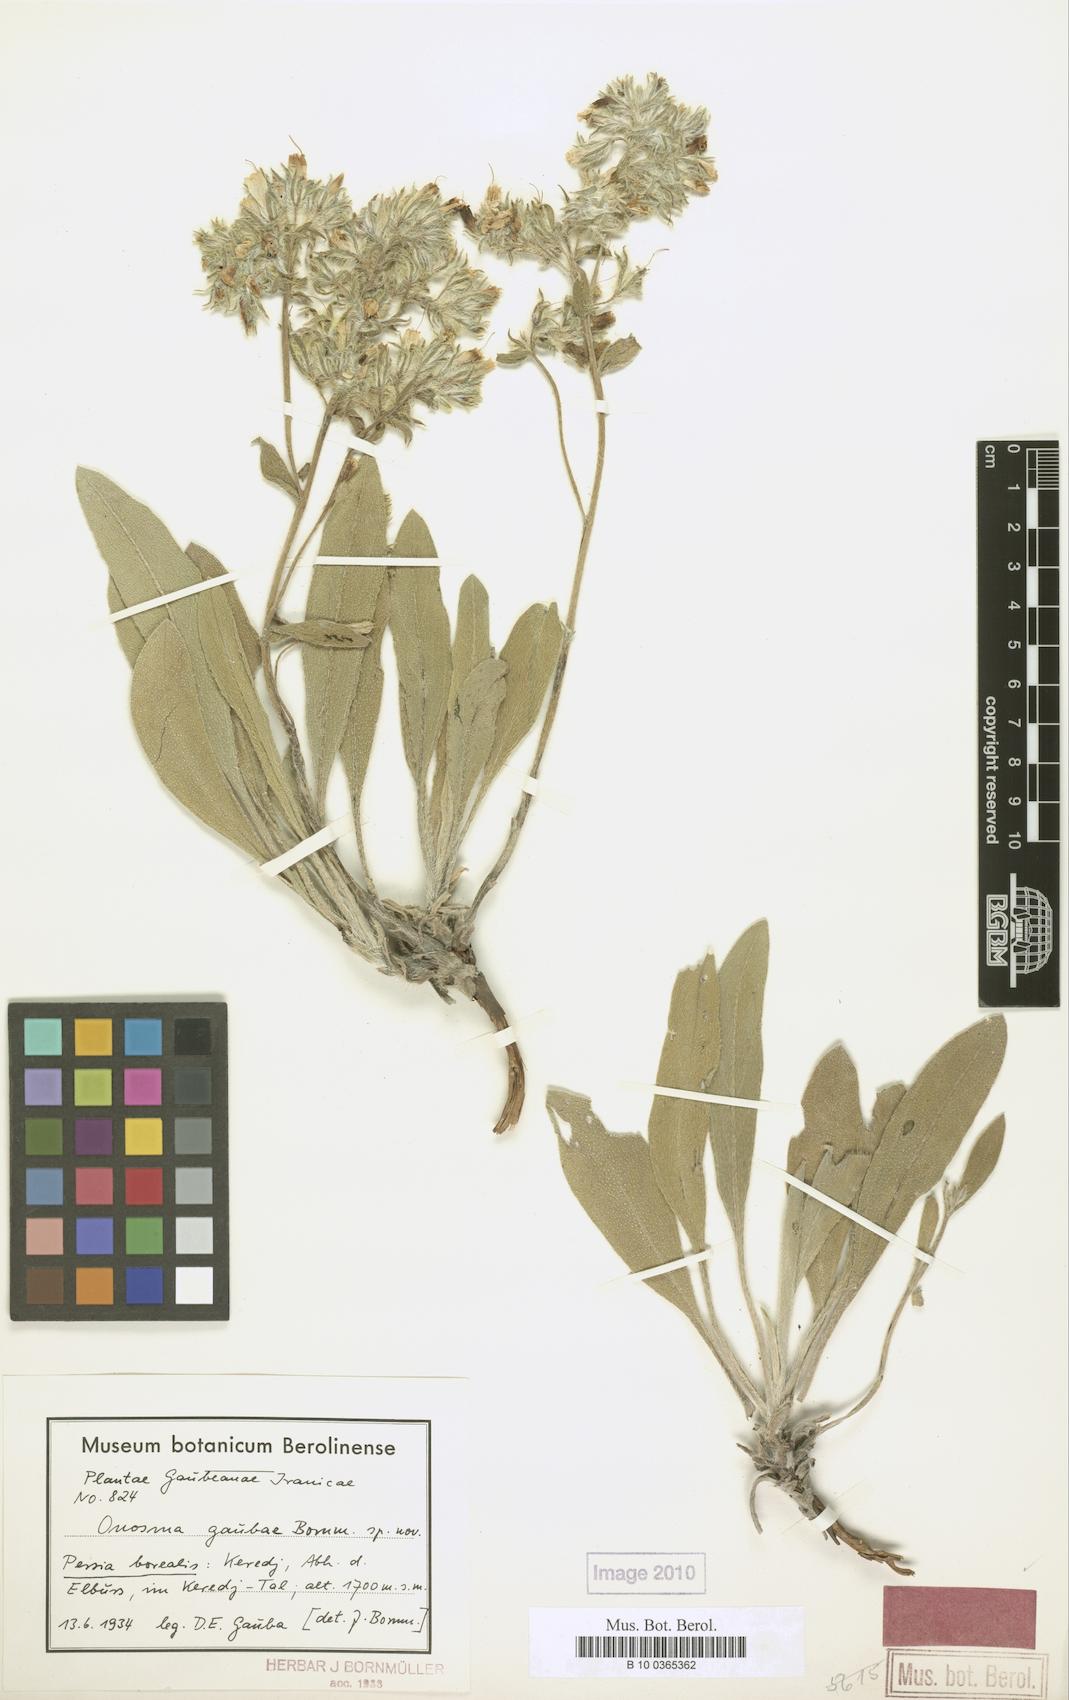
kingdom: Plantae
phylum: Tracheophyta
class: Magnoliopsida
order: Boraginales
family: Boraginaceae
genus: Onosma
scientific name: Onosma gaubae
